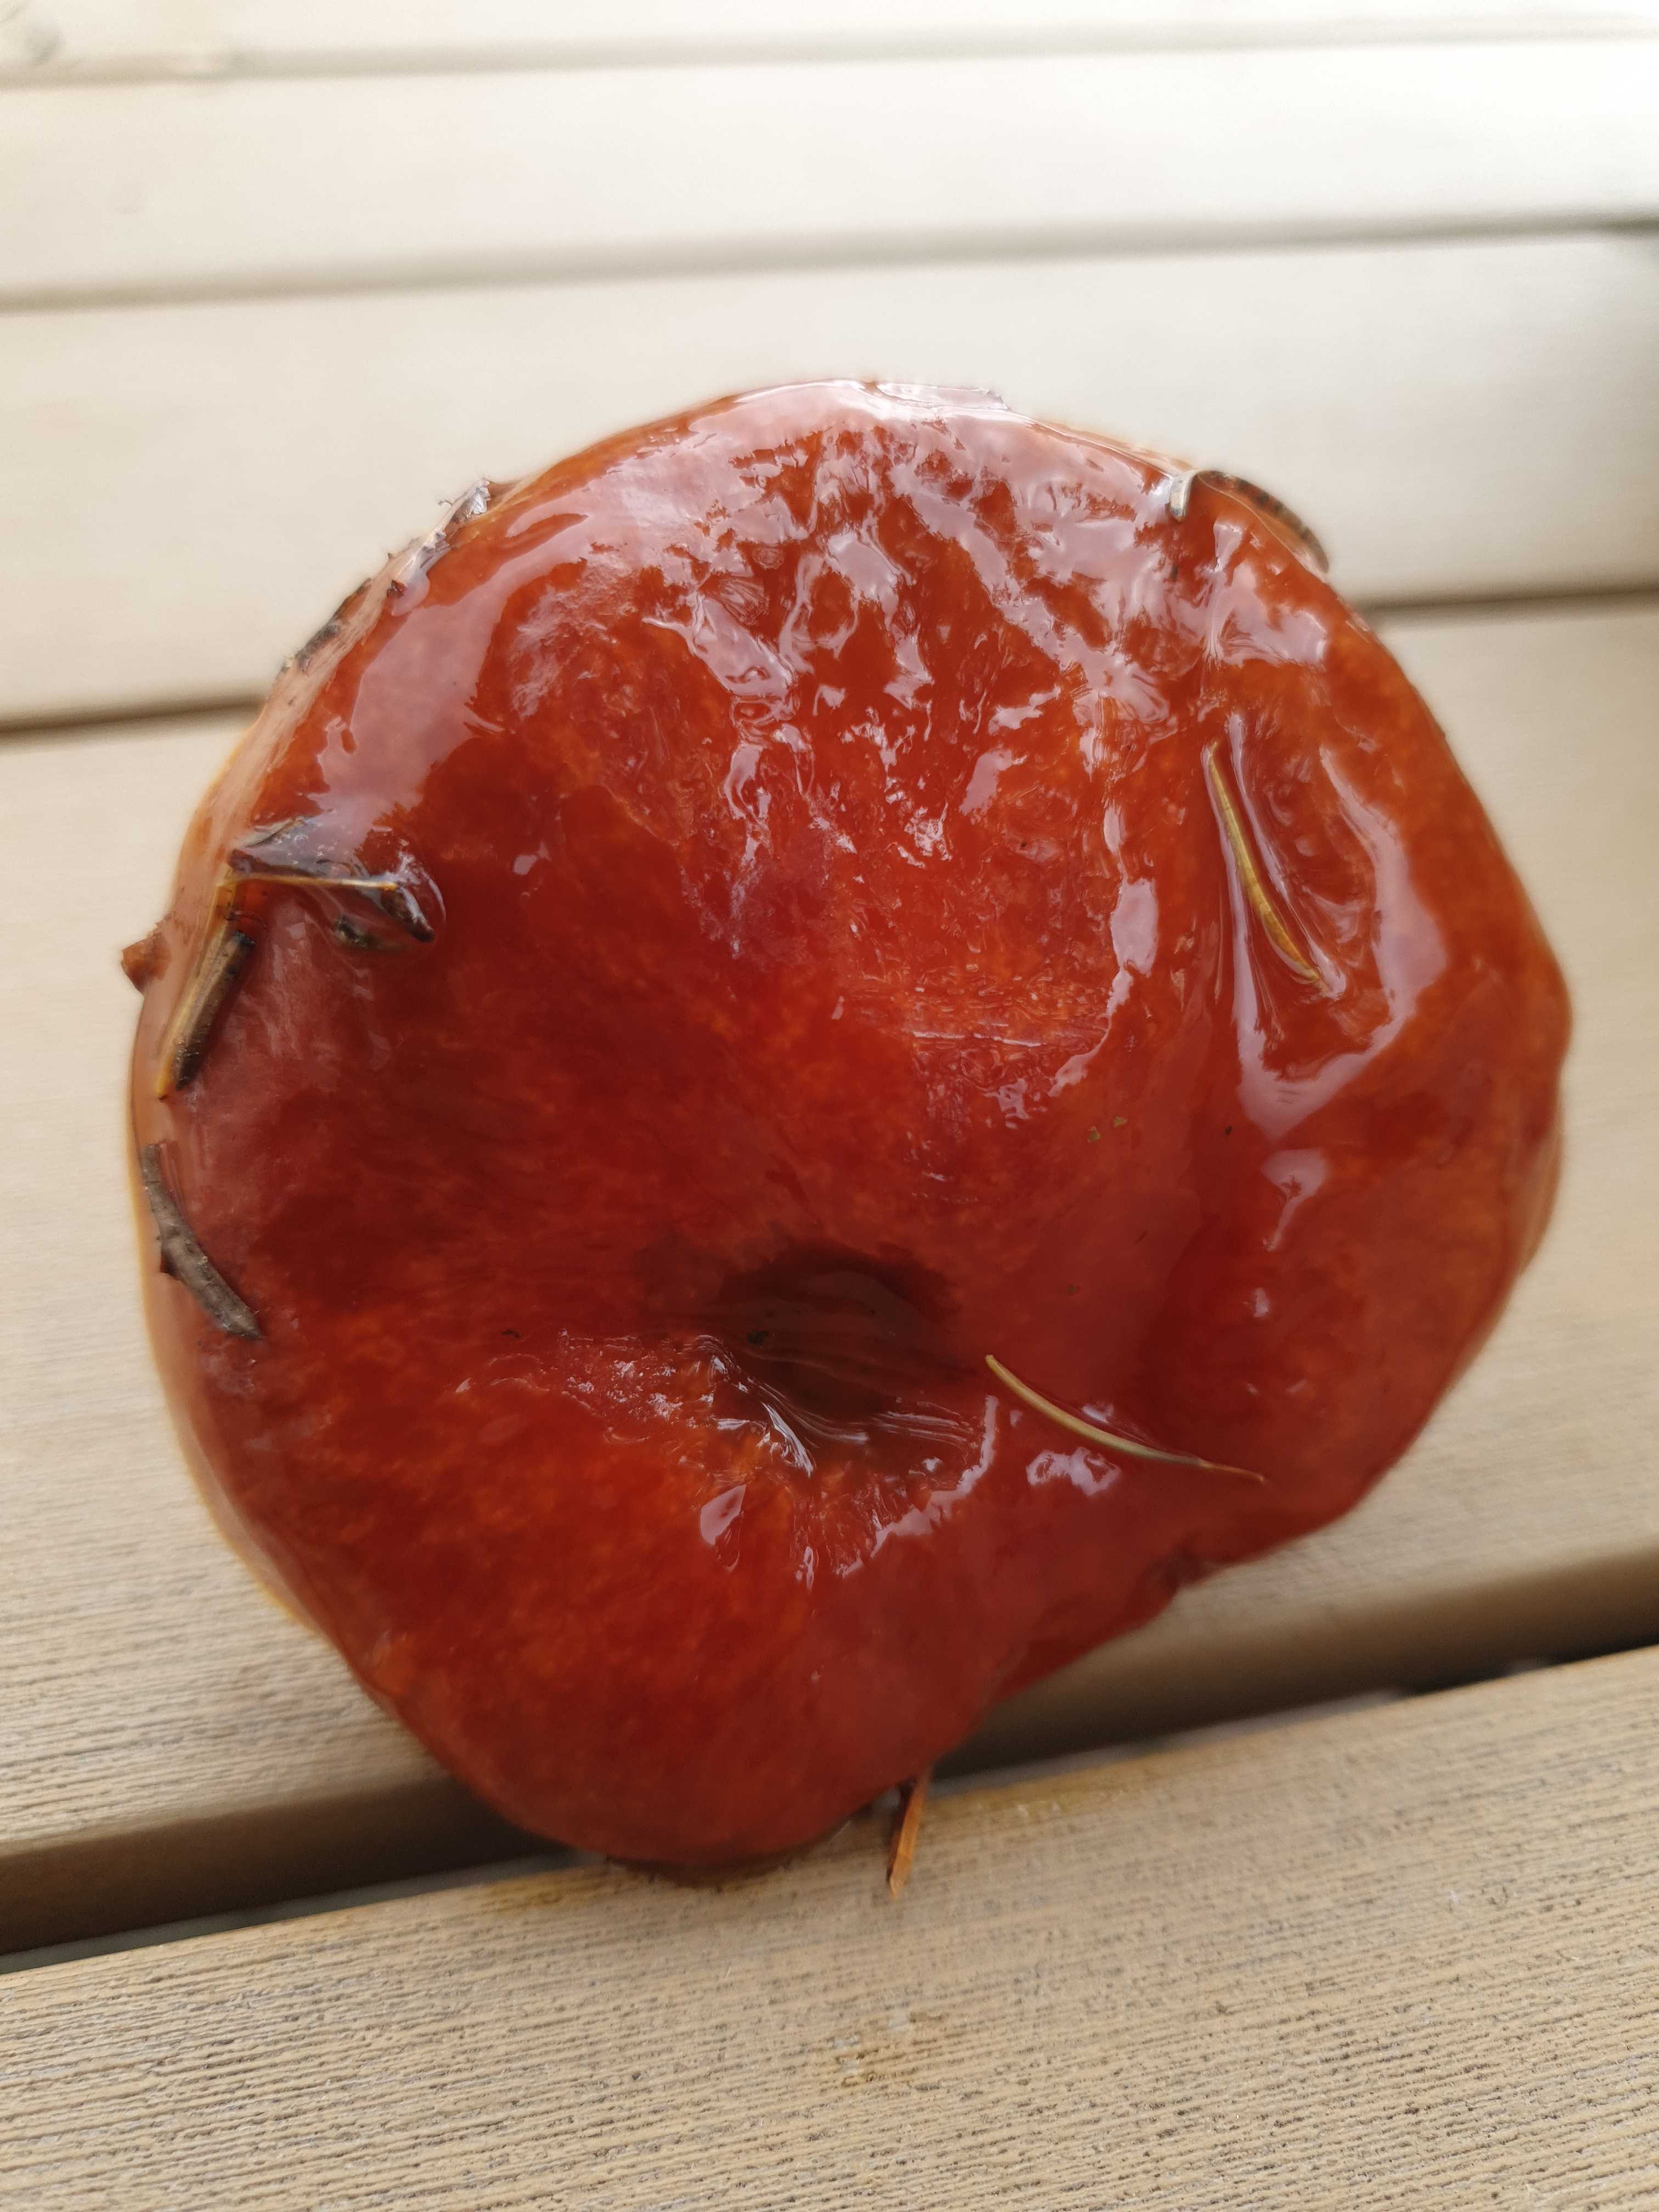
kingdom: Fungi
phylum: Basidiomycota
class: Agaricomycetes
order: Boletales
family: Suillaceae
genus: Suillus
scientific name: Suillus luteus
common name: brungul slimrørhat
